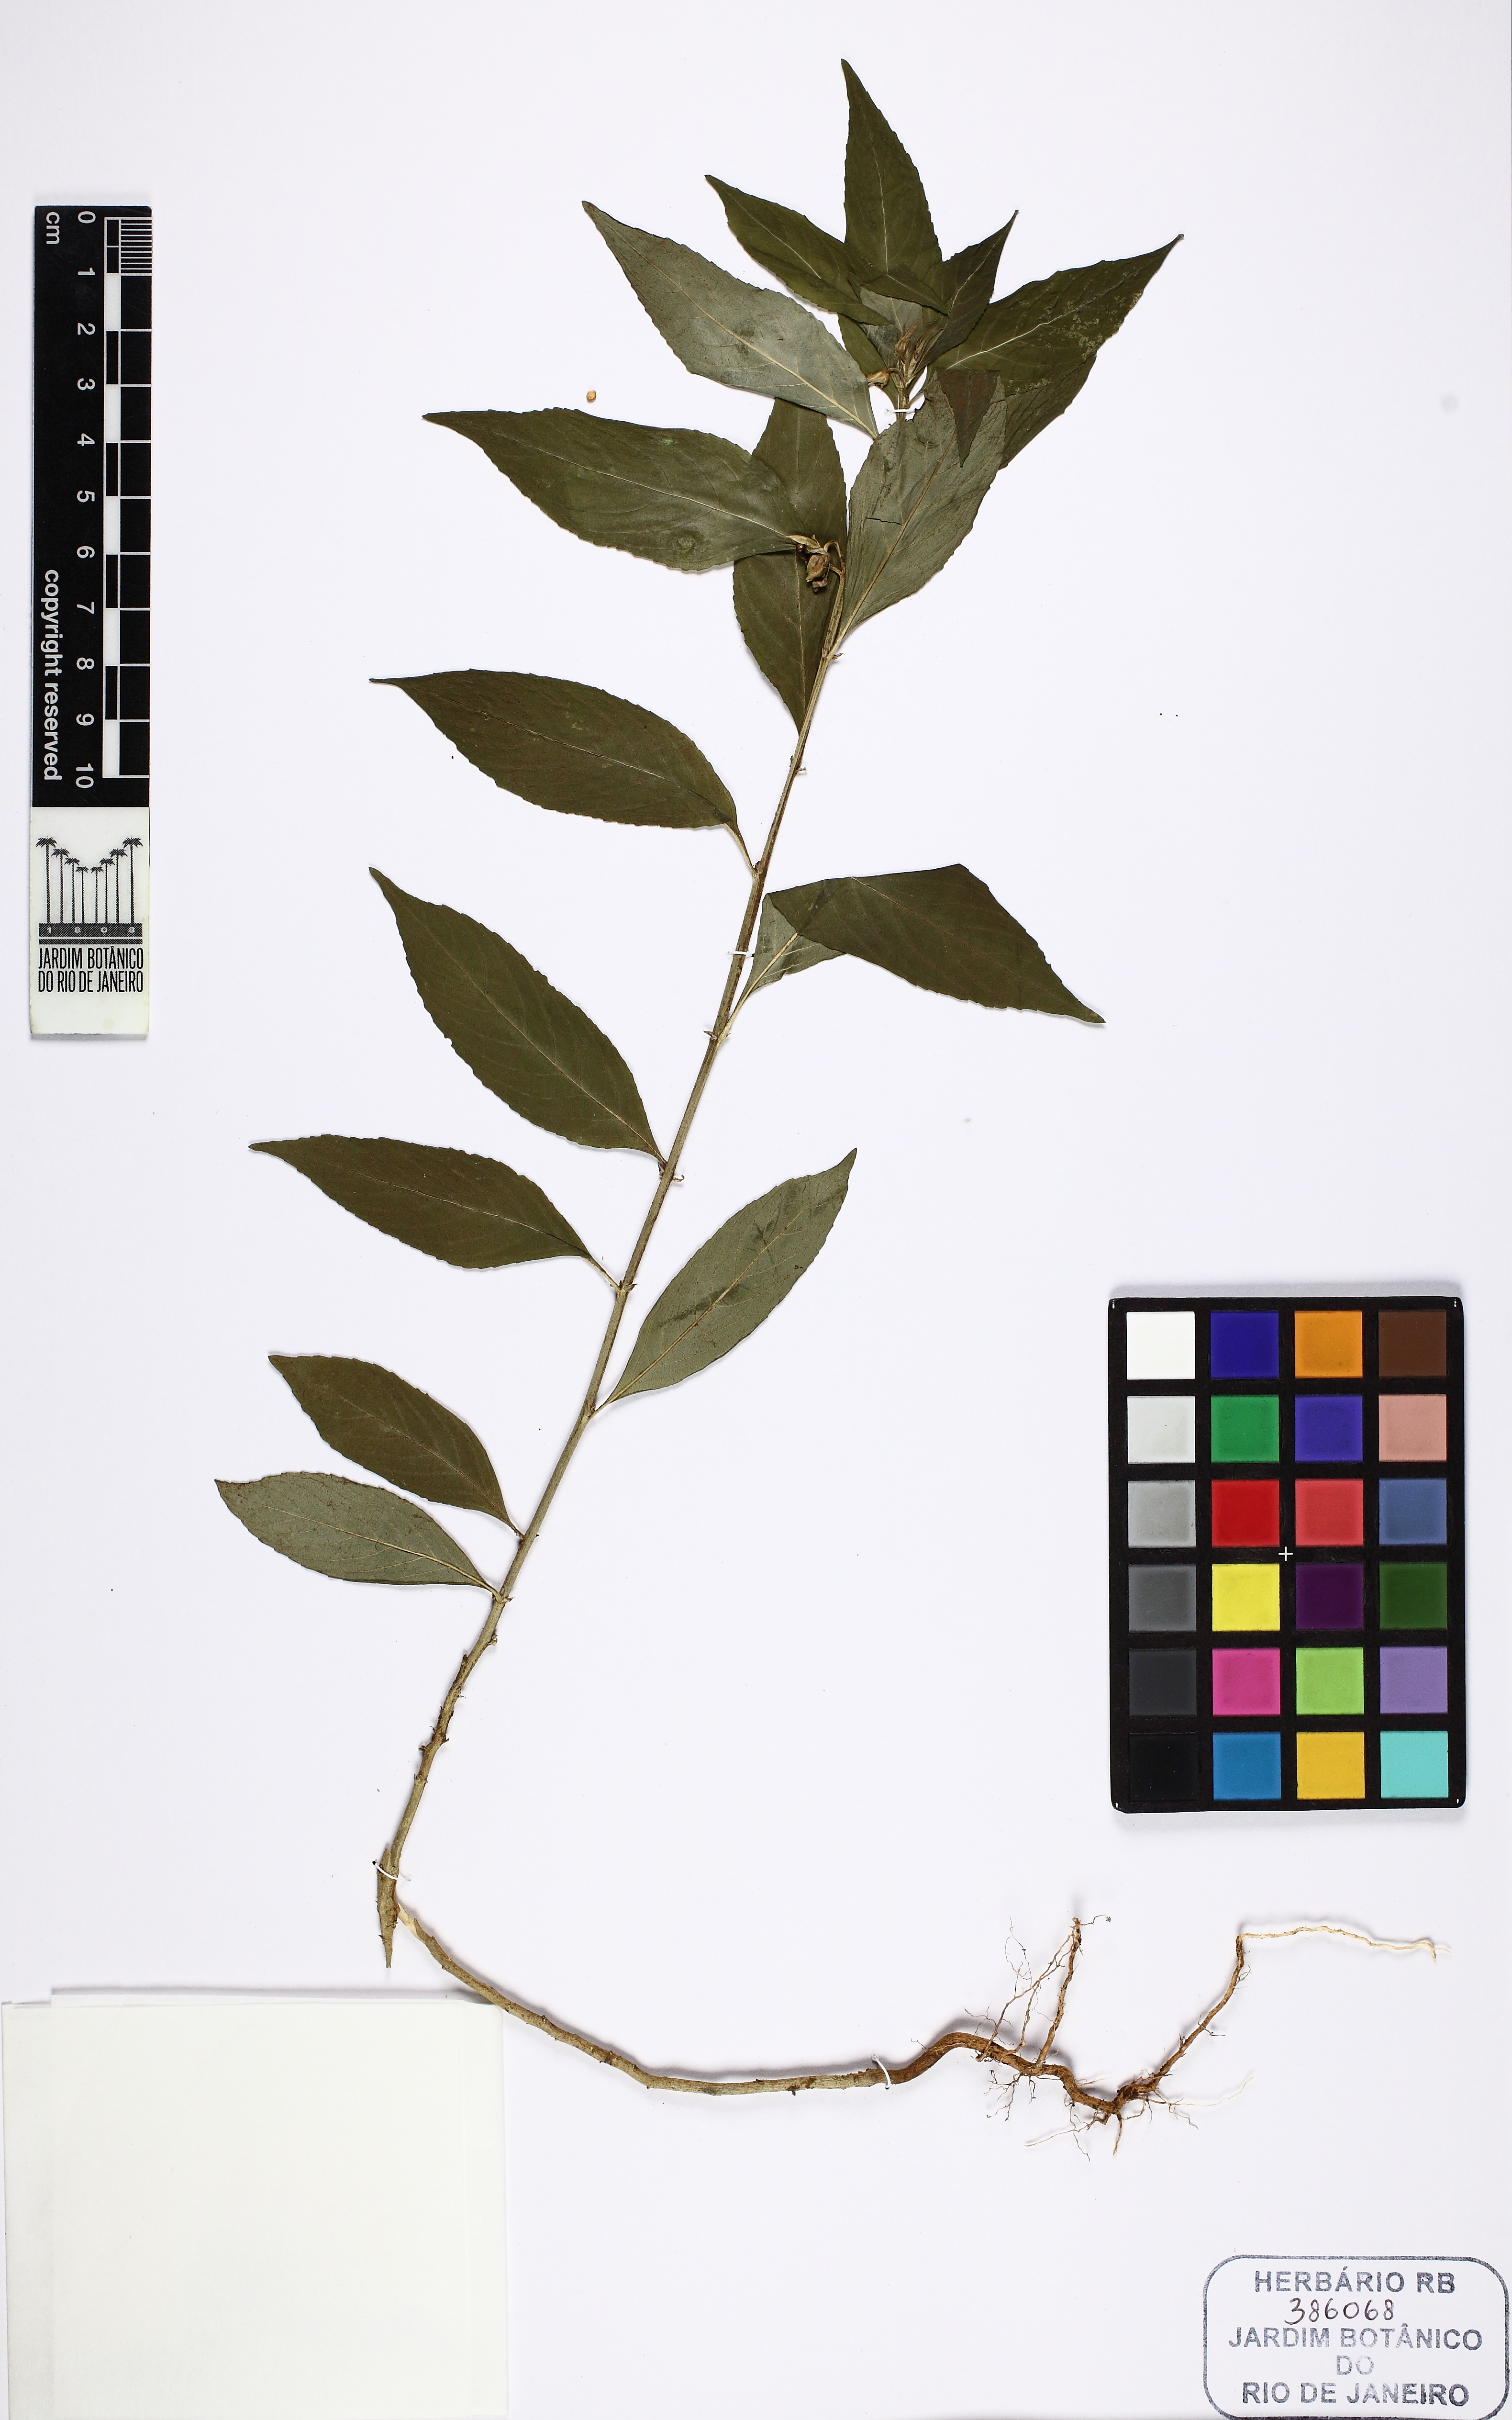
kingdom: Plantae
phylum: Tracheophyta
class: Magnoliopsida
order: Malpighiales
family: Violaceae
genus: Pombalia
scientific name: Pombalia communis
